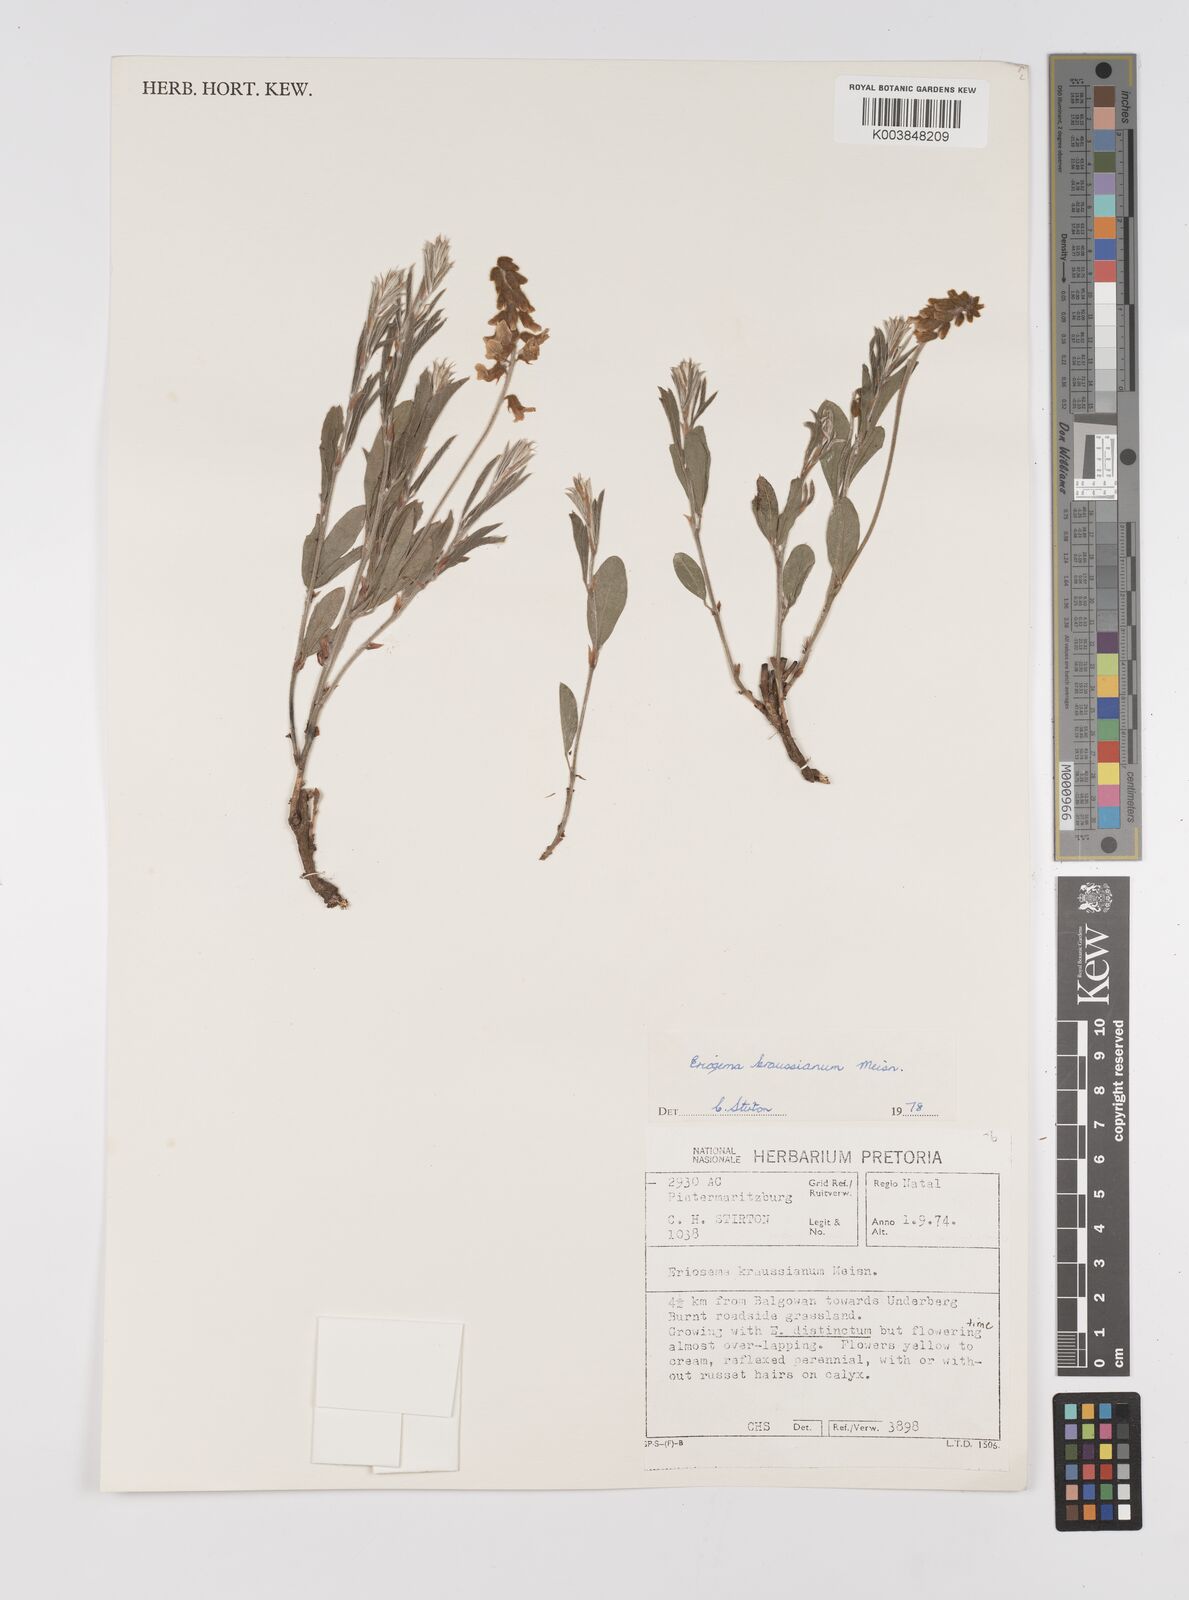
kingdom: Plantae
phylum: Tracheophyta
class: Magnoliopsida
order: Fabales
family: Fabaceae
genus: Eriosema
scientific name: Eriosema kraussianum
